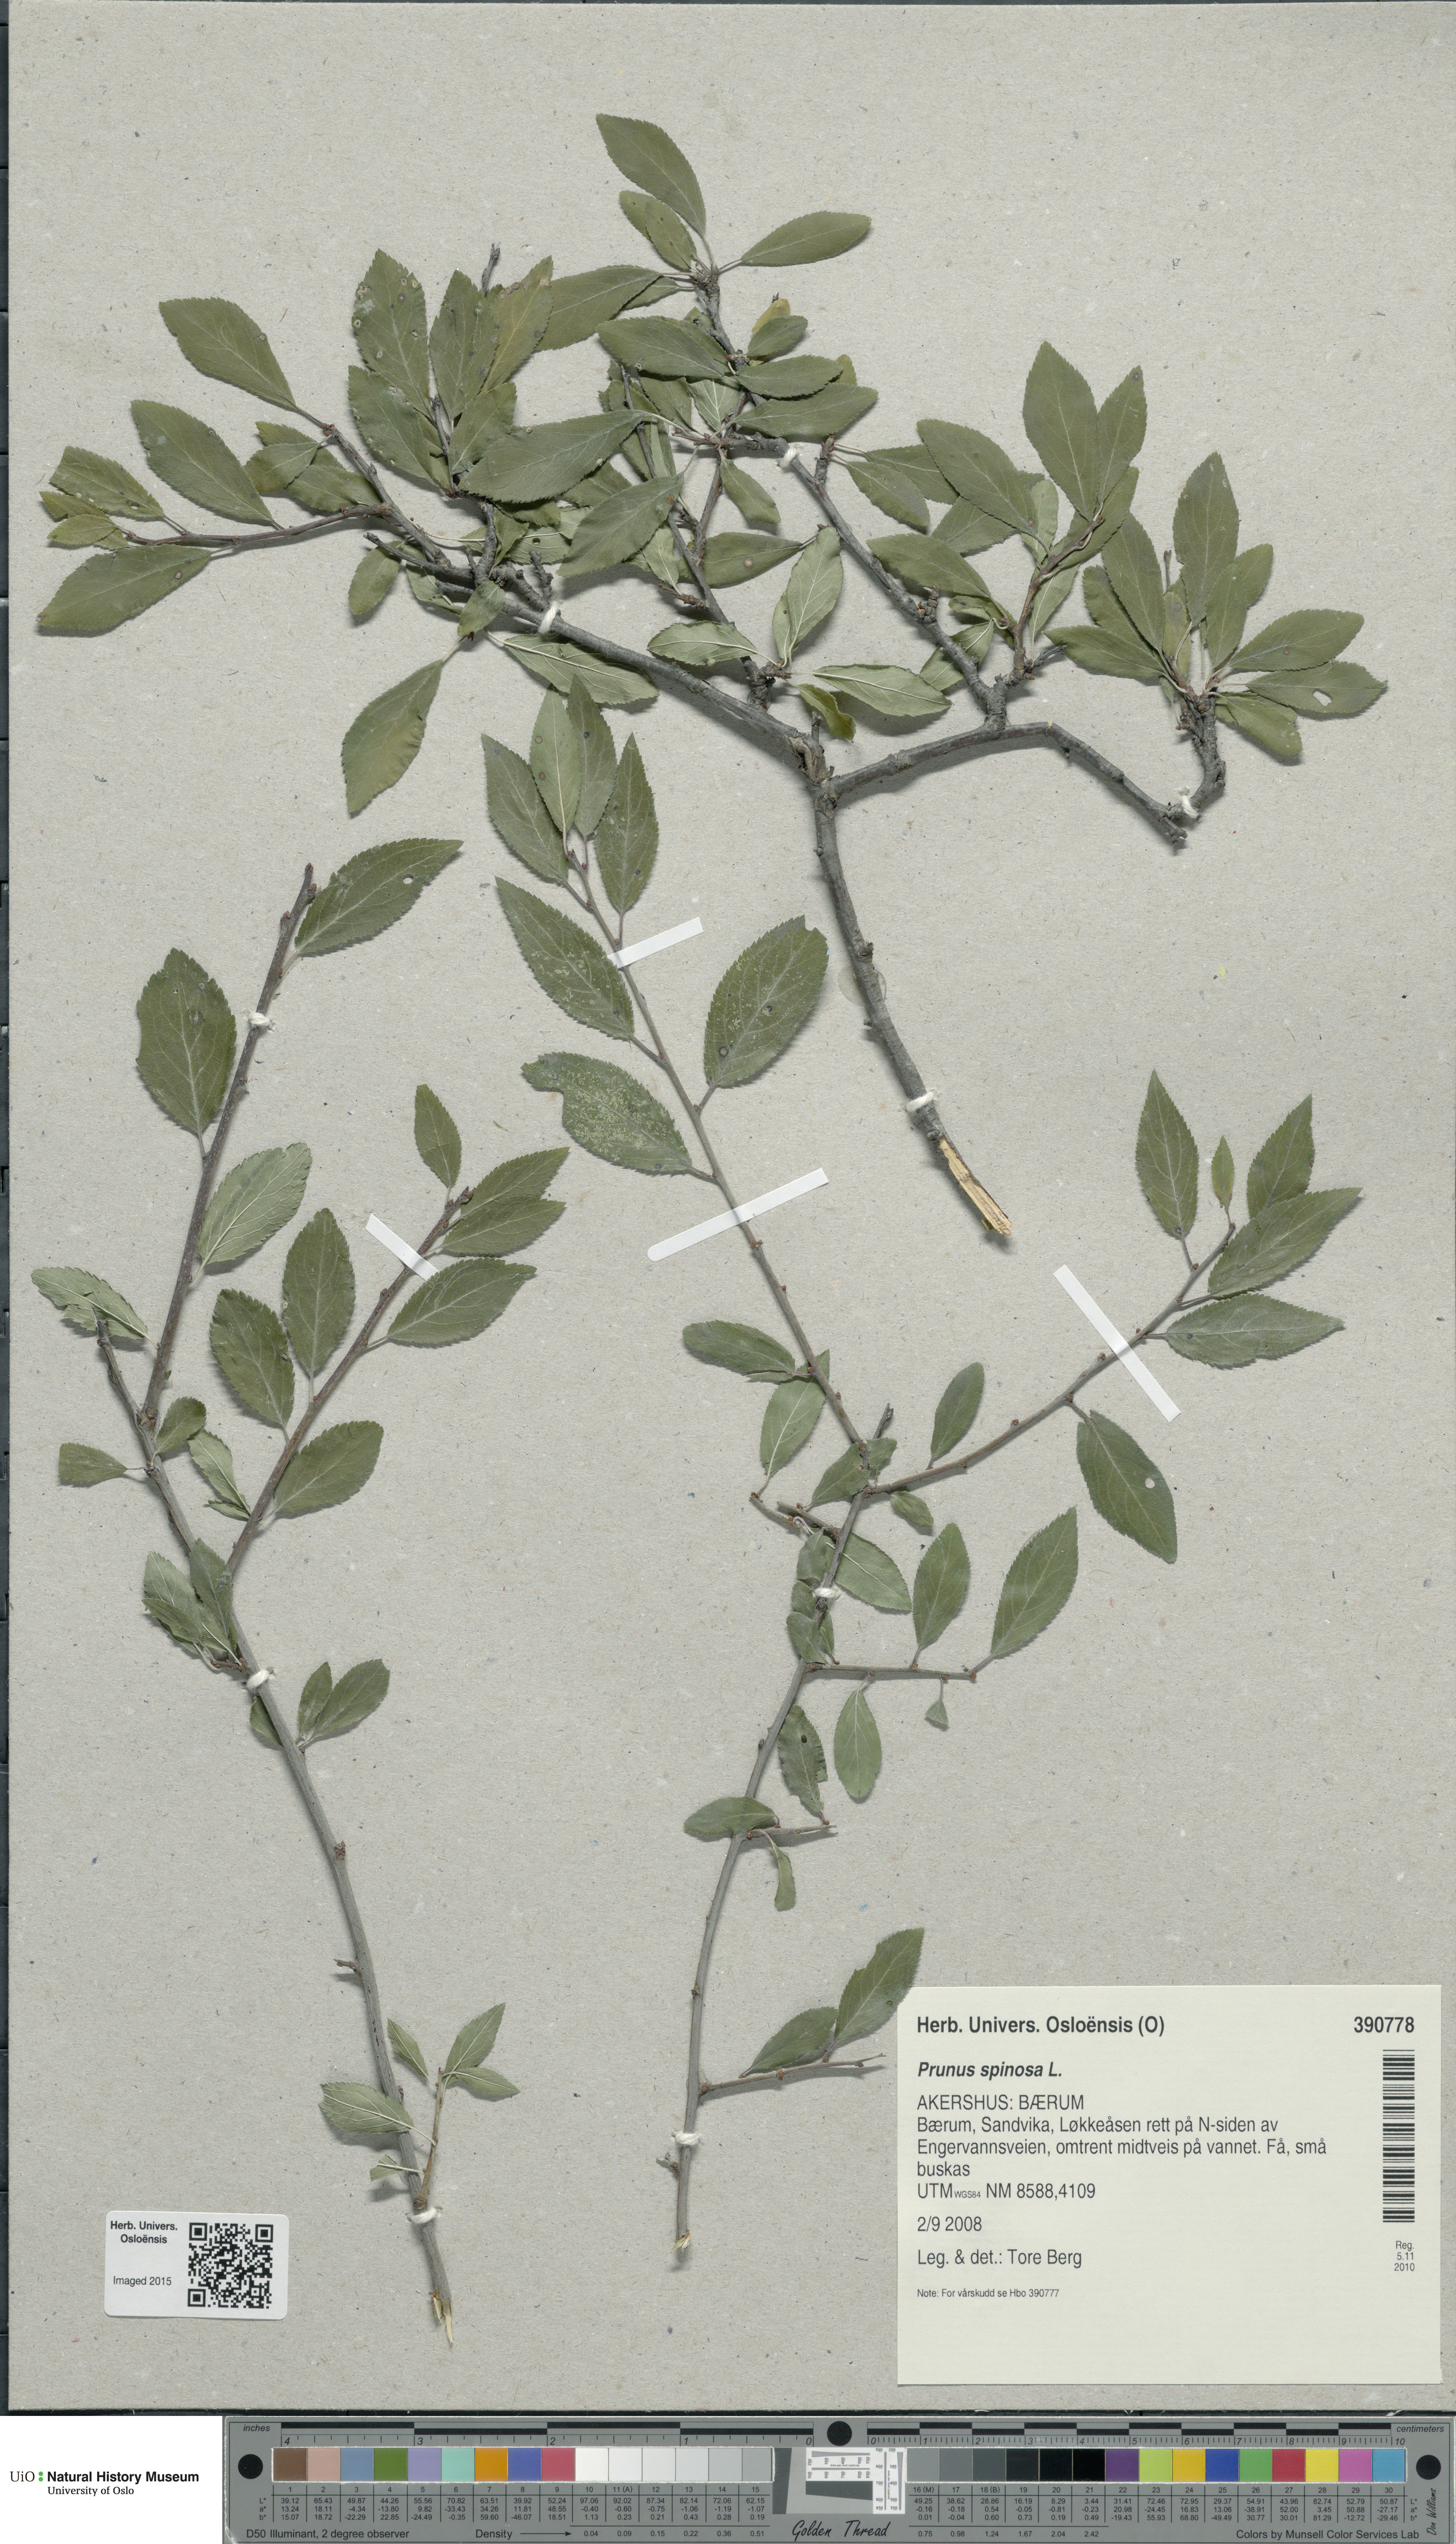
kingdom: Plantae
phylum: Tracheophyta
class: Magnoliopsida
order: Rosales
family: Rosaceae
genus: Prunus
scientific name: Prunus spinosa
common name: Blackthorn
